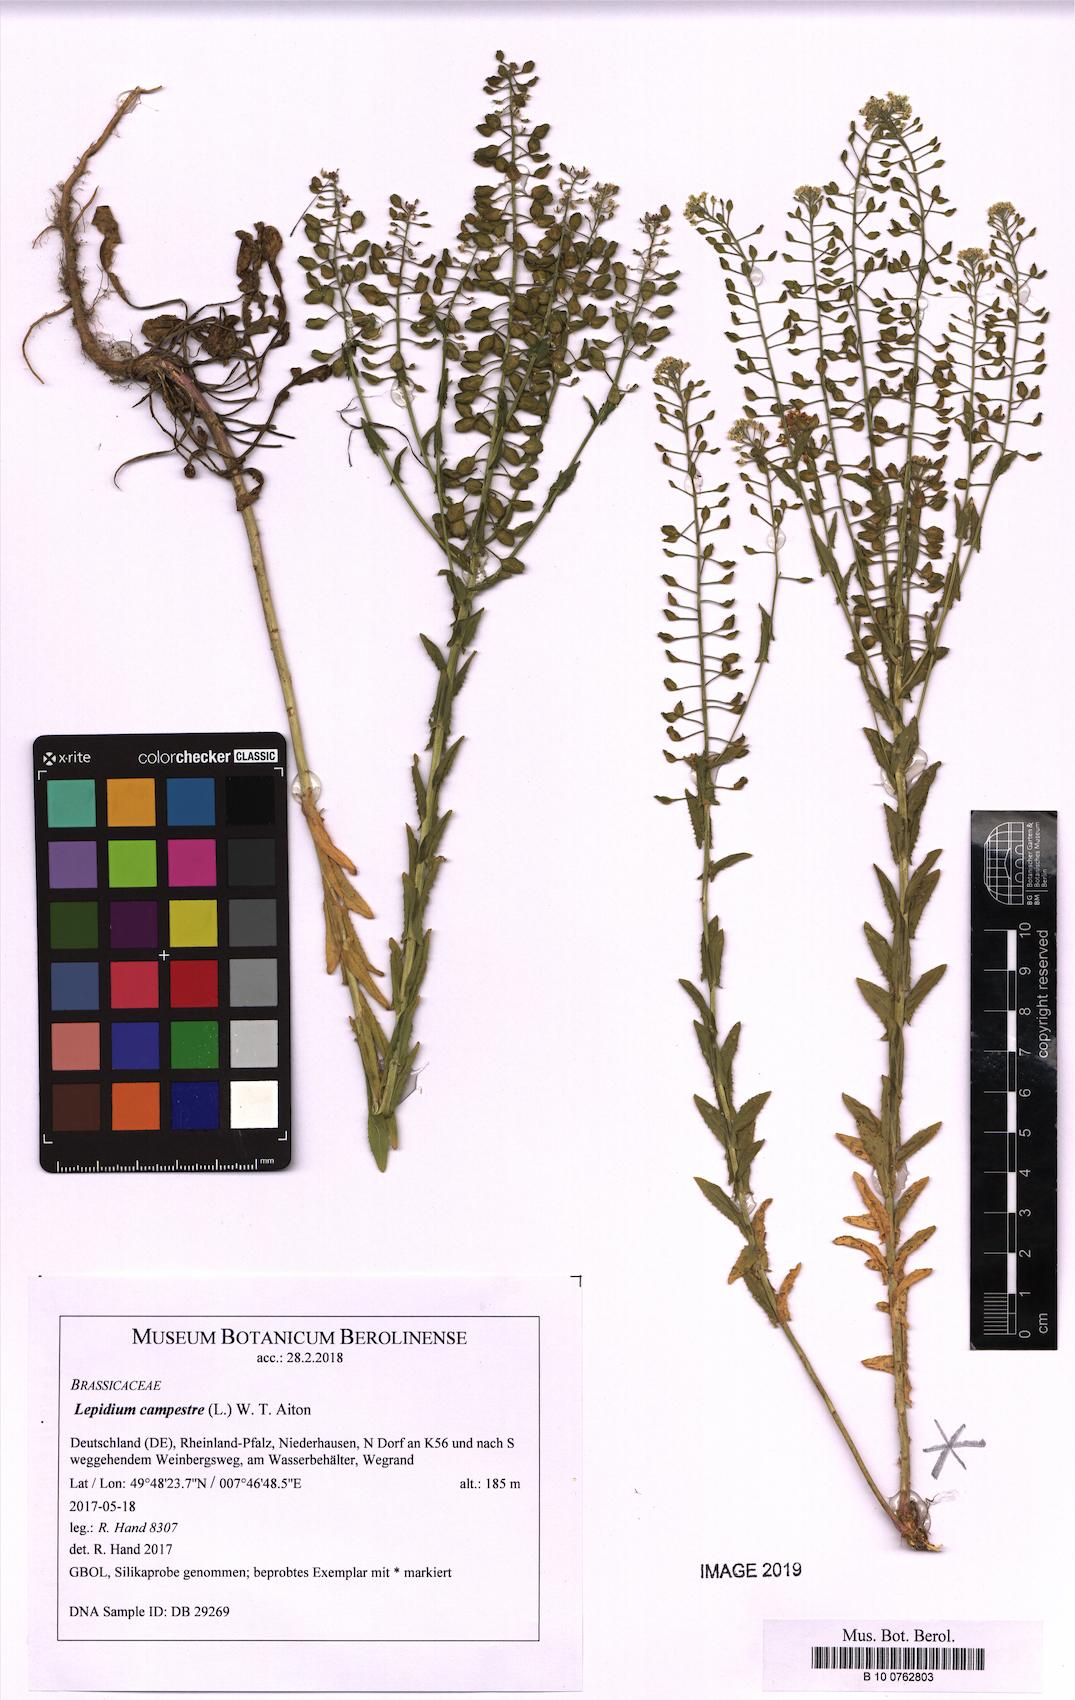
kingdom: Plantae
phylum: Tracheophyta
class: Magnoliopsida
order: Brassicales
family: Brassicaceae
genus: Lepidium
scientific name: Lepidium campestre
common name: Field pepperwort
